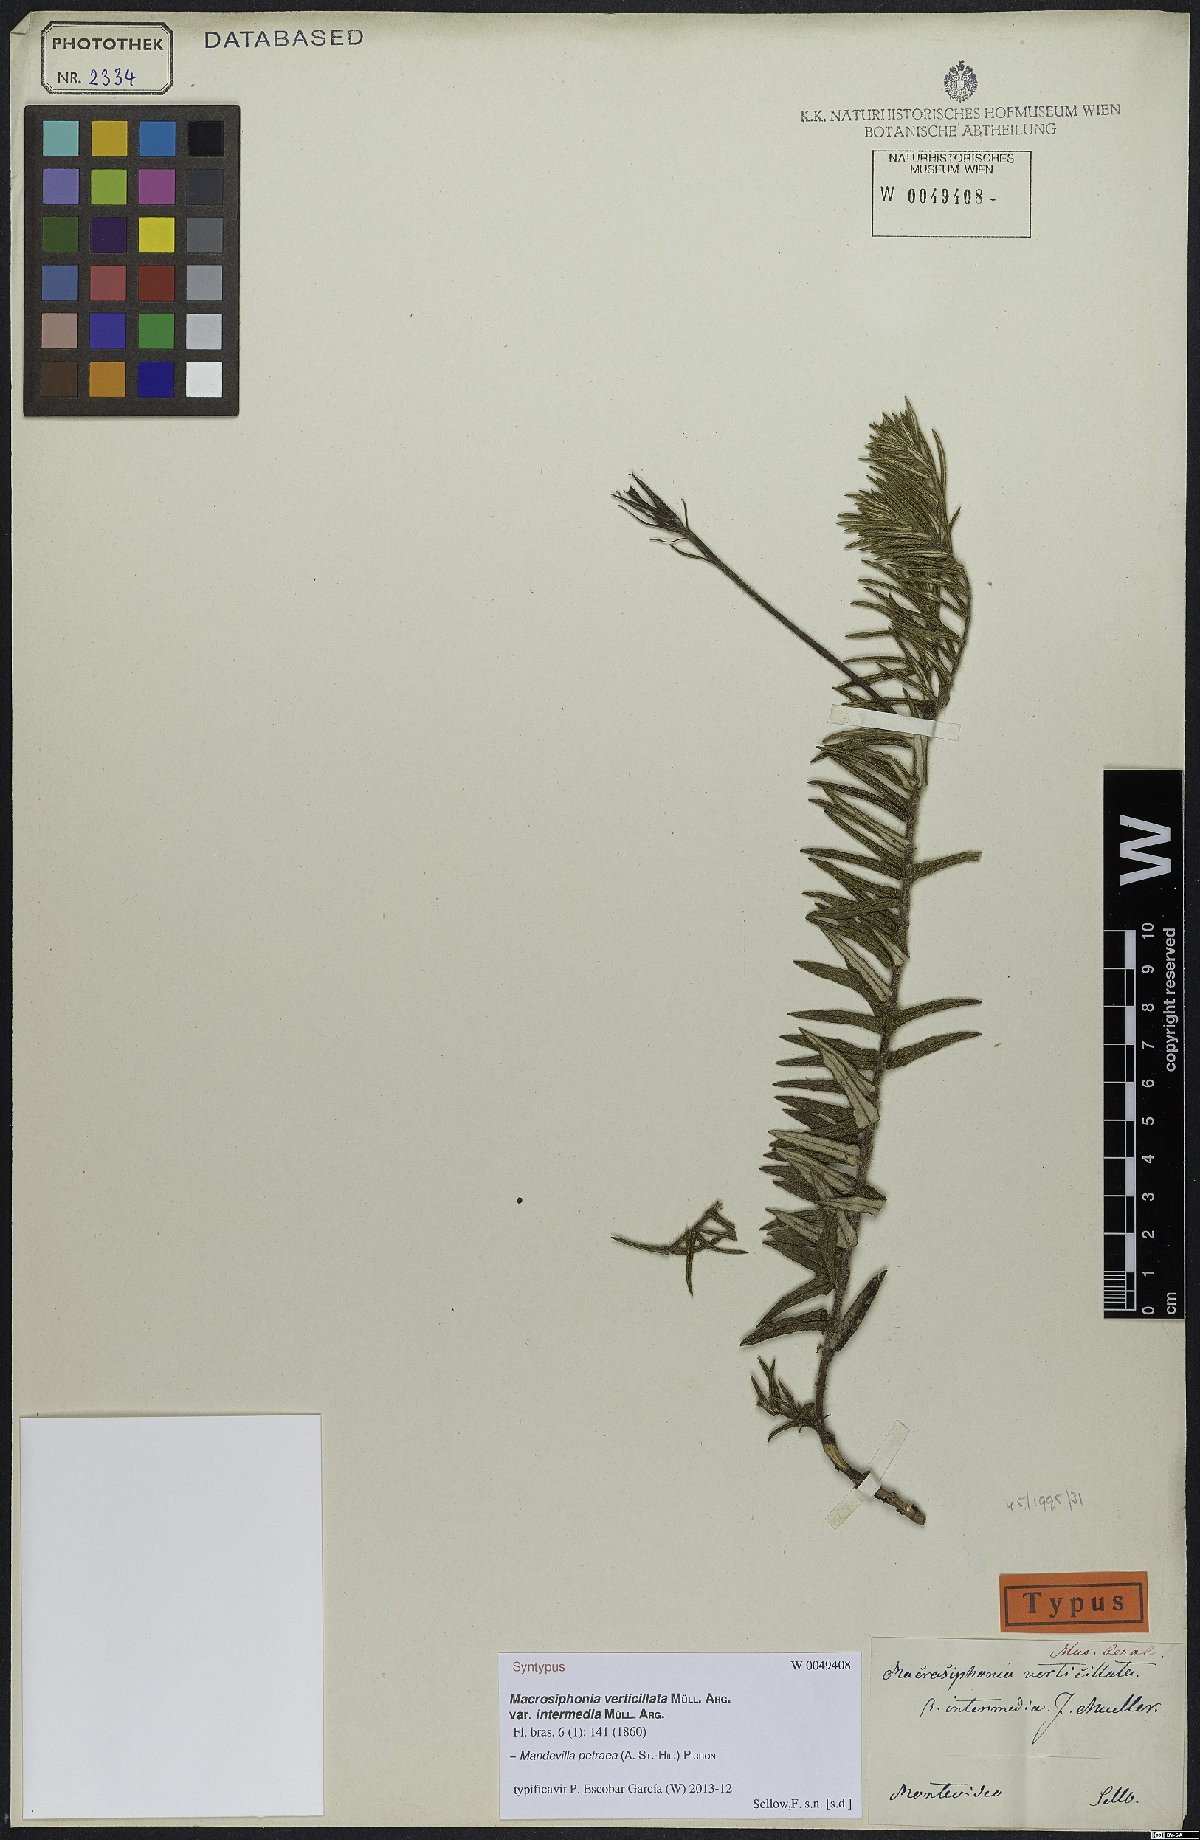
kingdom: Plantae
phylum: Tracheophyta
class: Magnoliopsida
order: Gentianales
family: Apocynaceae
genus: Mandevilla
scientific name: Mandevilla petraea
